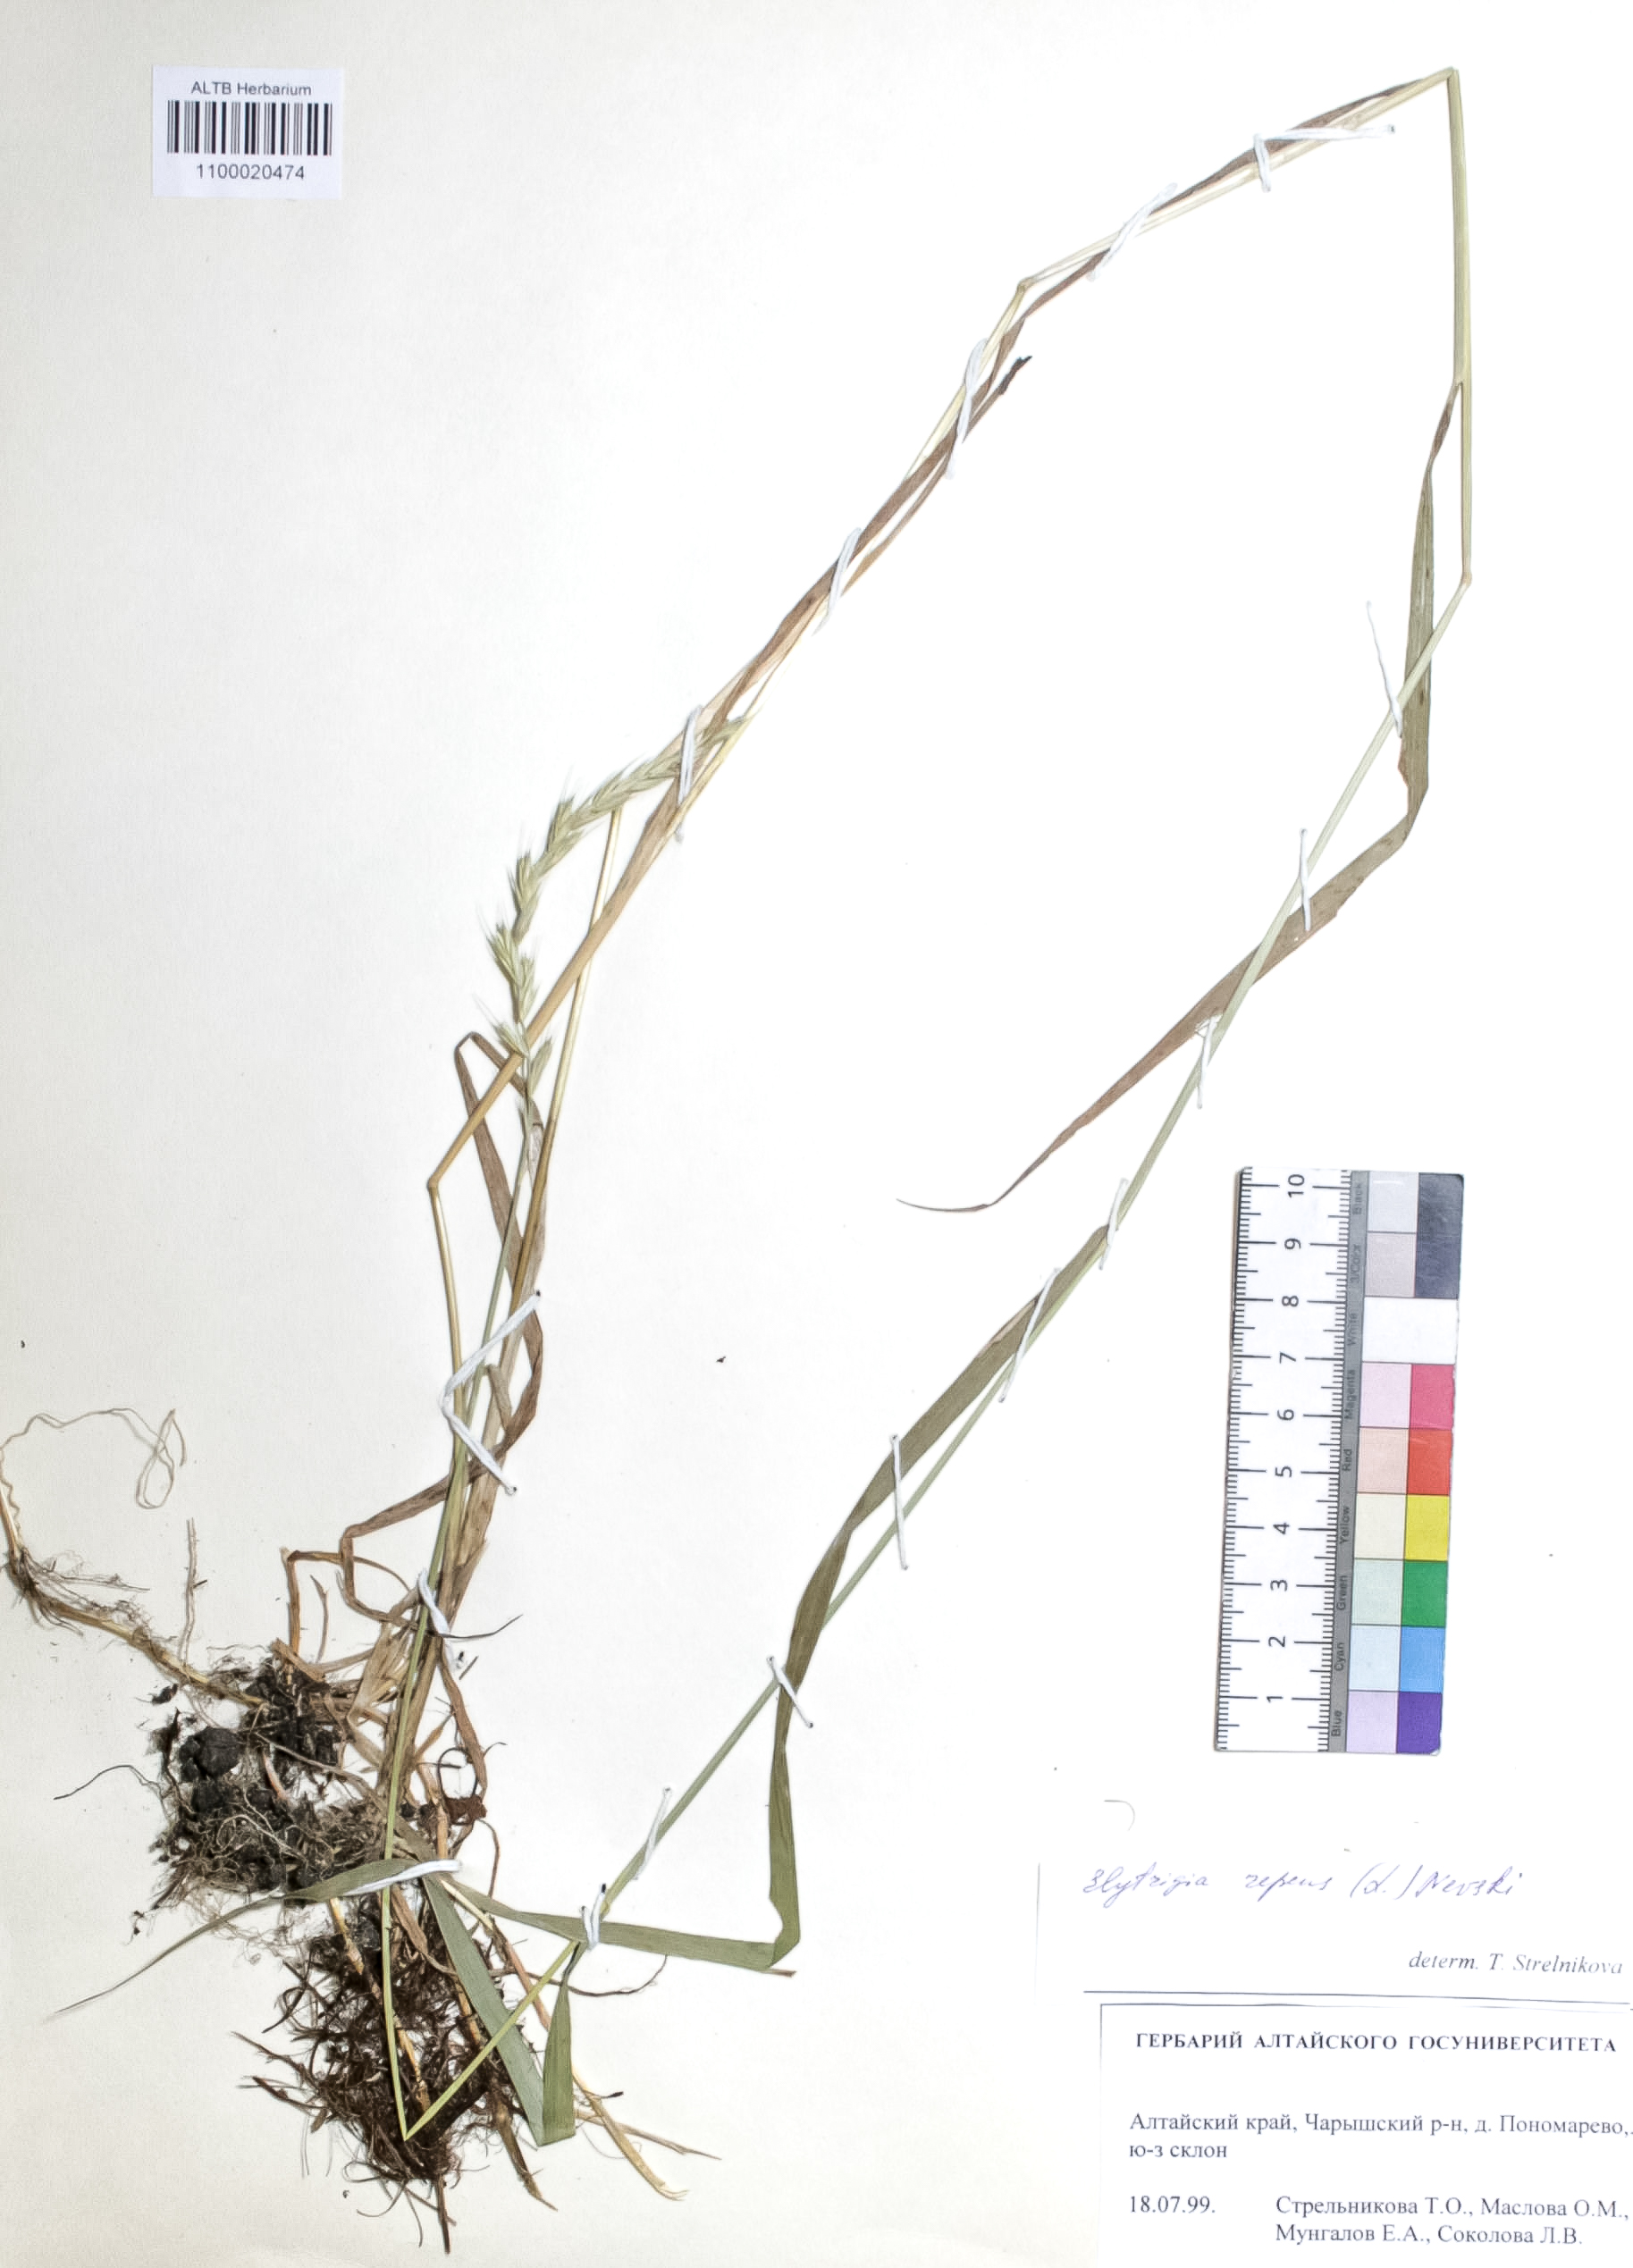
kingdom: Plantae
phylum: Tracheophyta
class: Liliopsida
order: Poales
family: Poaceae
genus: Elymus
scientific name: Elymus repens
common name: Quackgrass
